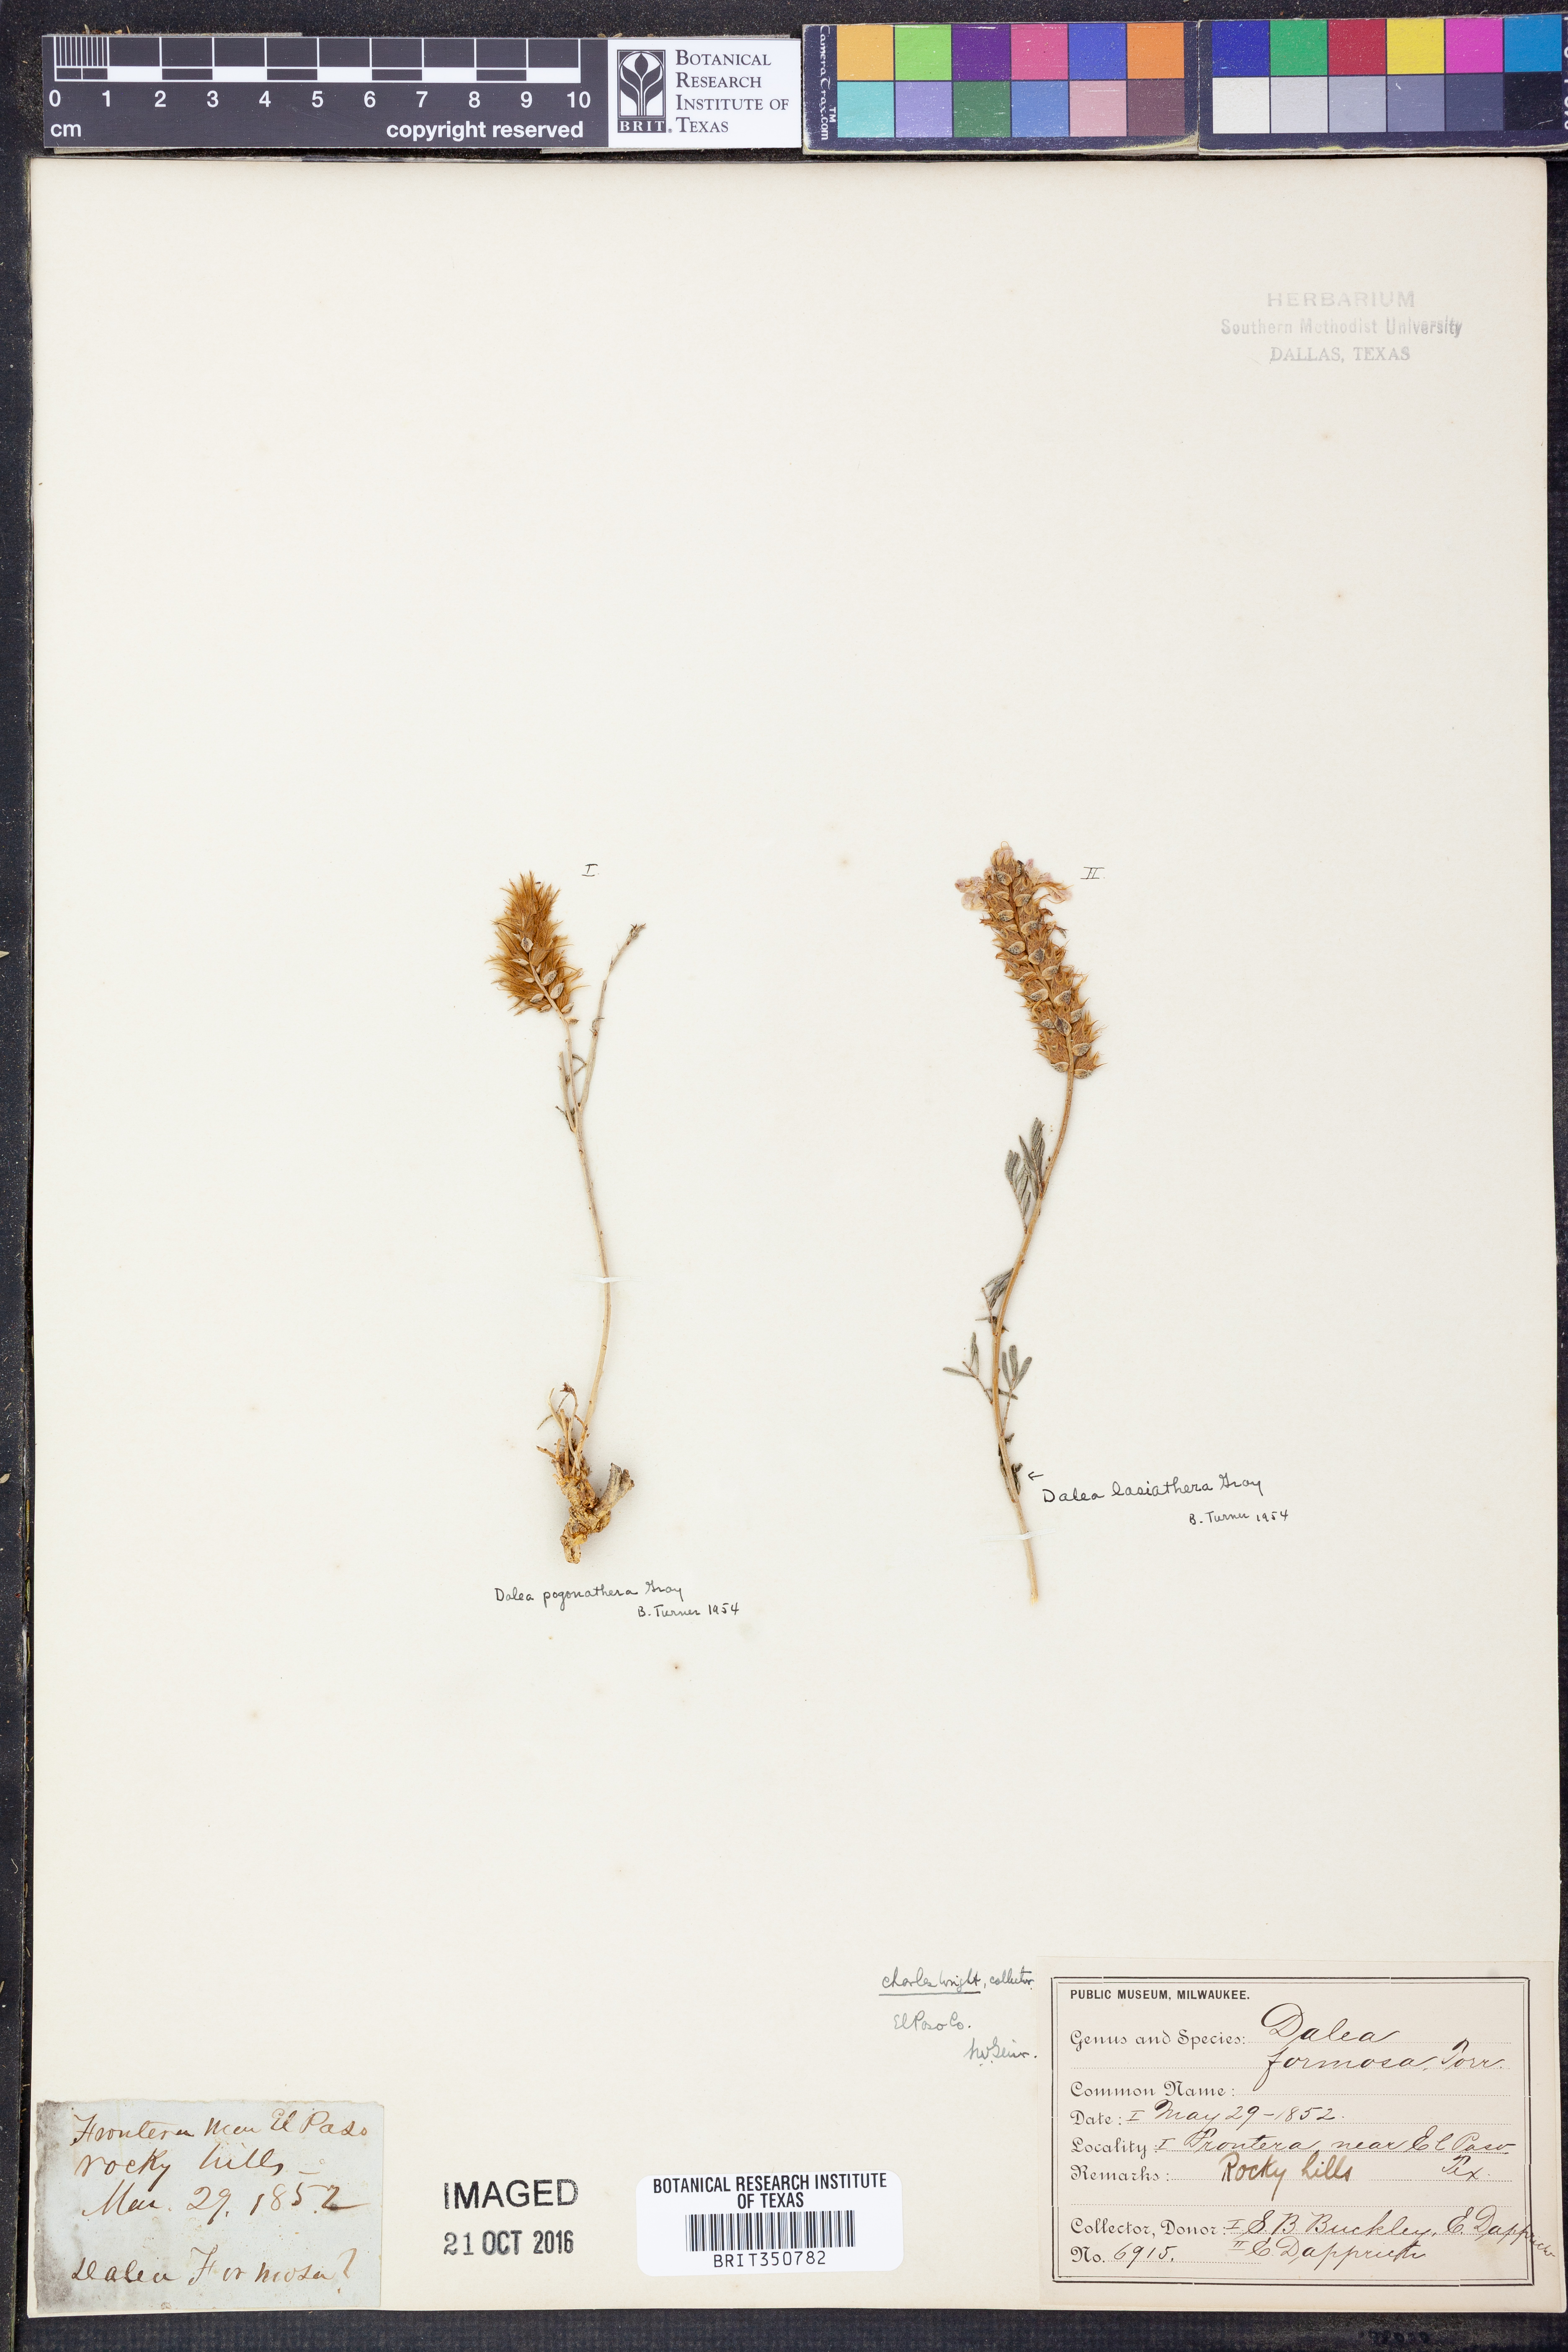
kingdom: Plantae
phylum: Tracheophyta
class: Magnoliopsida
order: Fabales
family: Fabaceae
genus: Dalea
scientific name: Dalea formosa
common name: Feather-plume dalea
